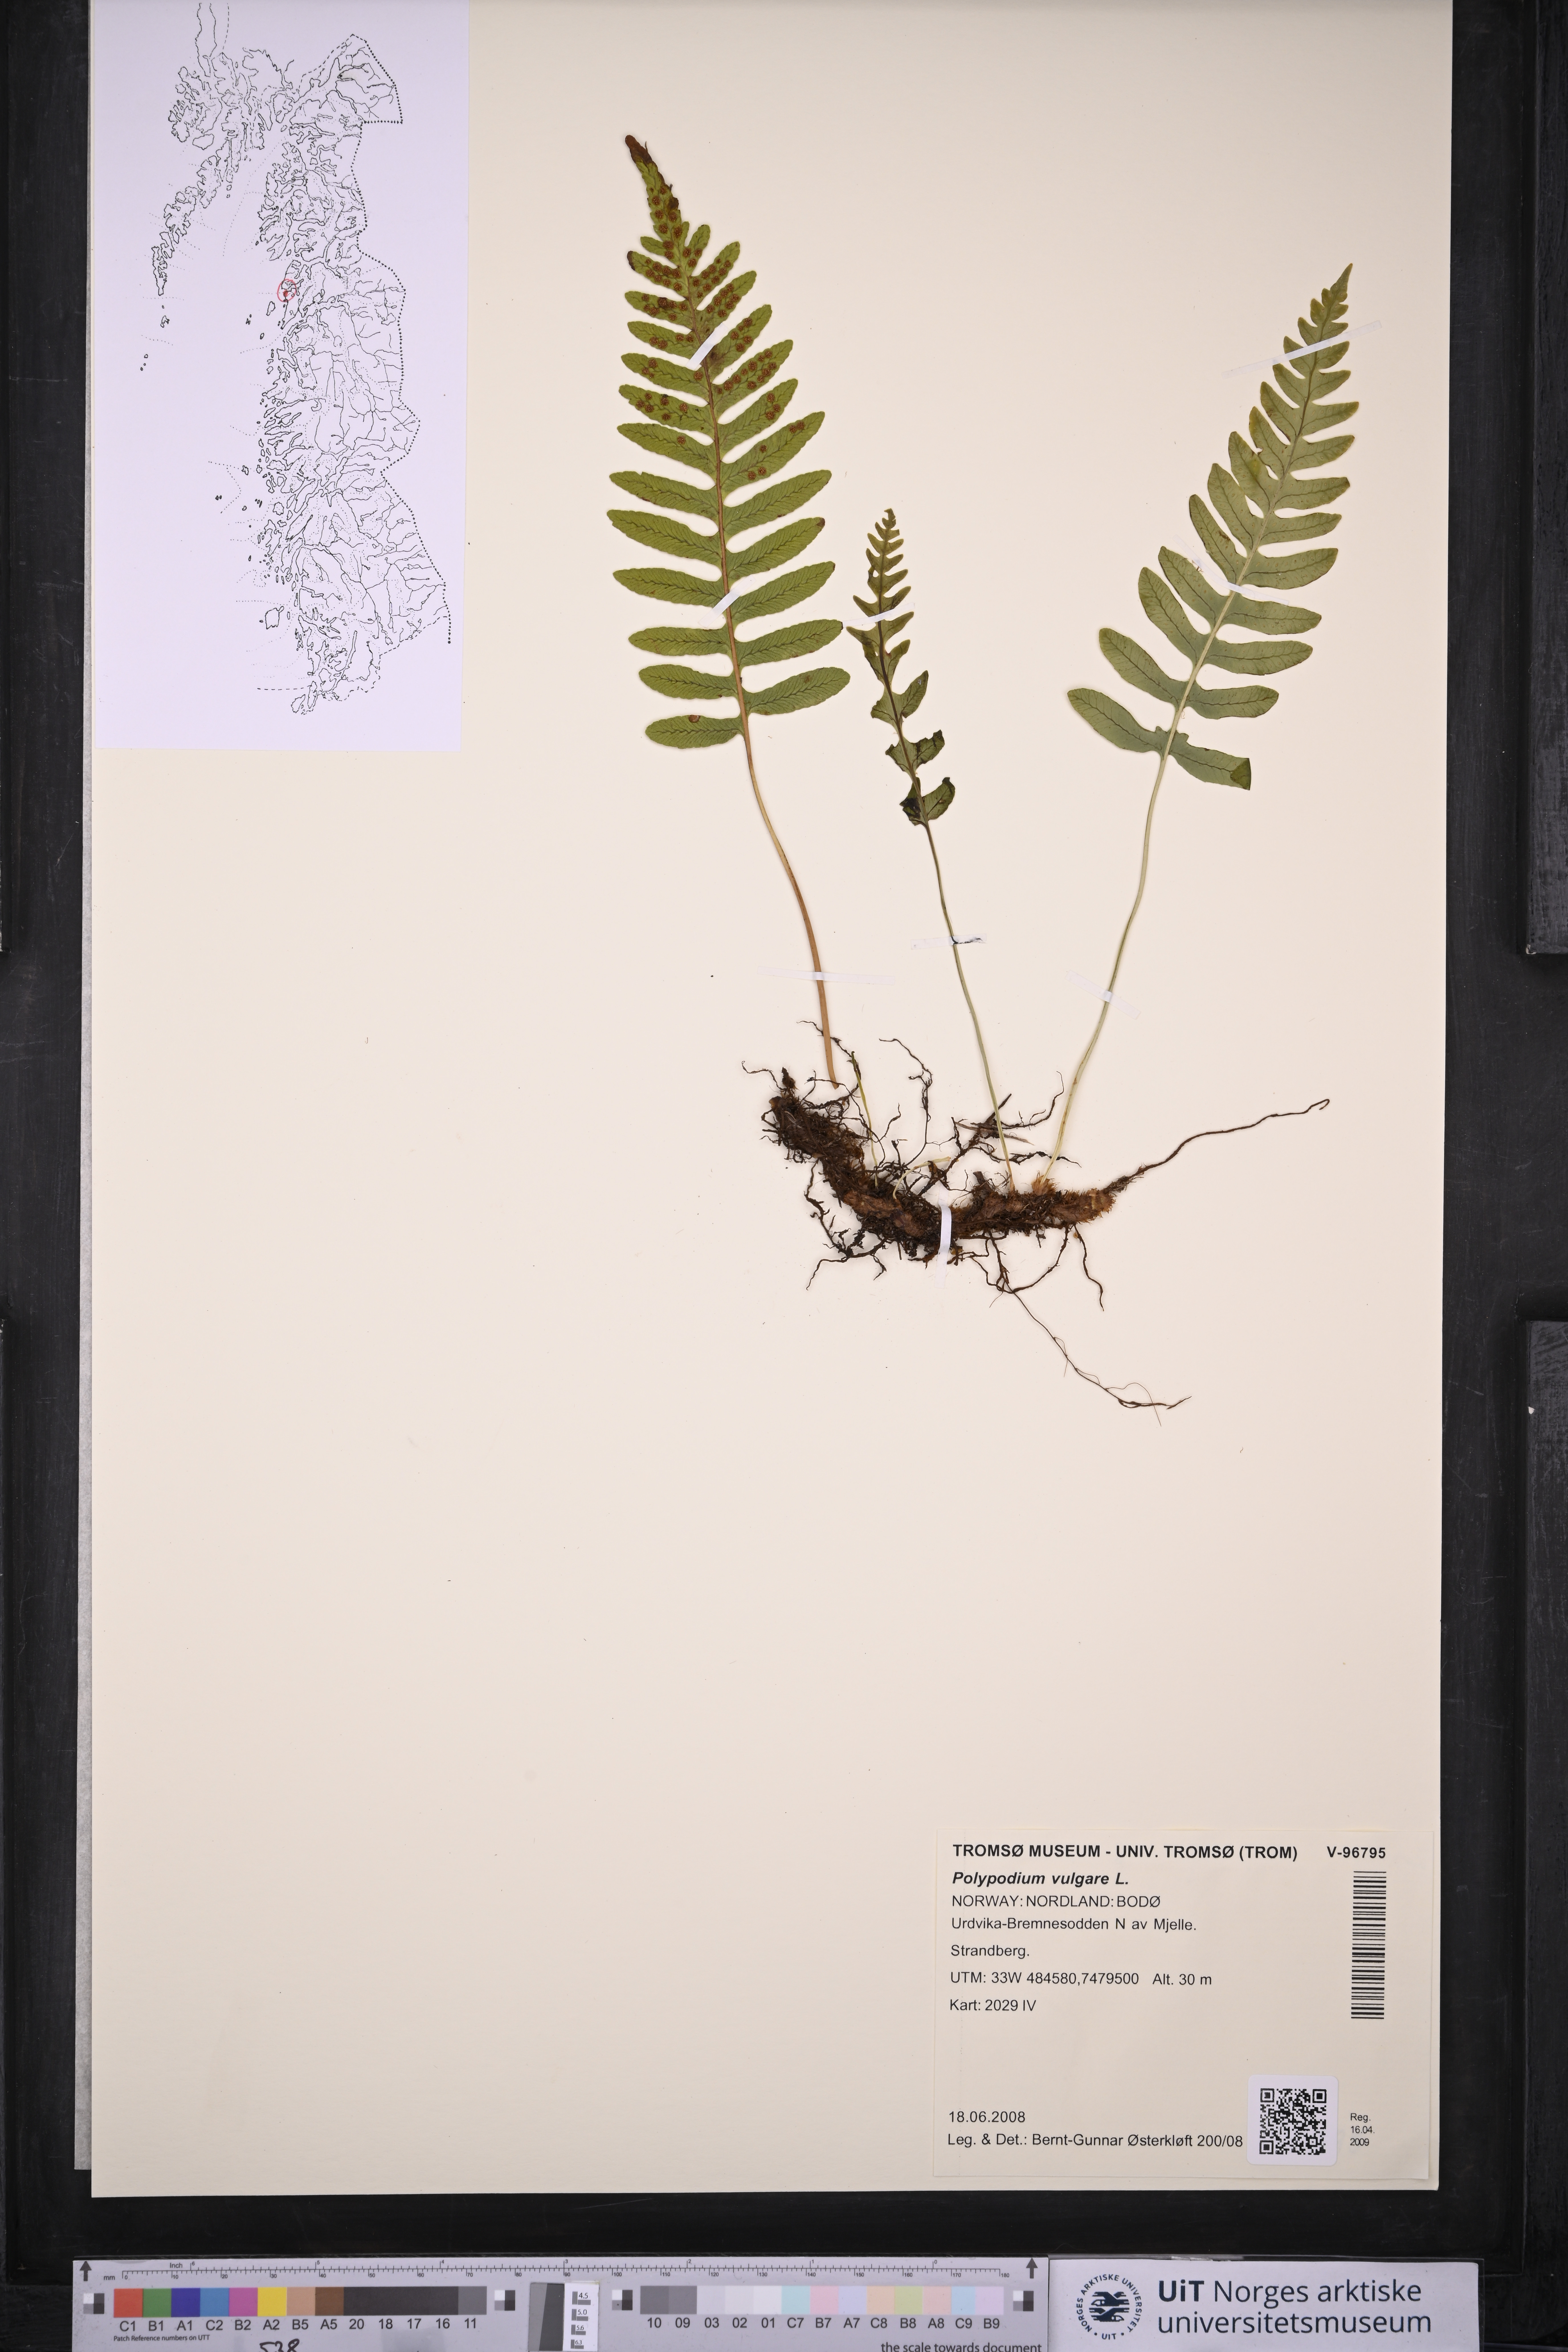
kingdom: Plantae
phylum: Tracheophyta
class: Polypodiopsida
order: Polypodiales
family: Polypodiaceae
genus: Polypodium
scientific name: Polypodium vulgare
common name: Common polypody
